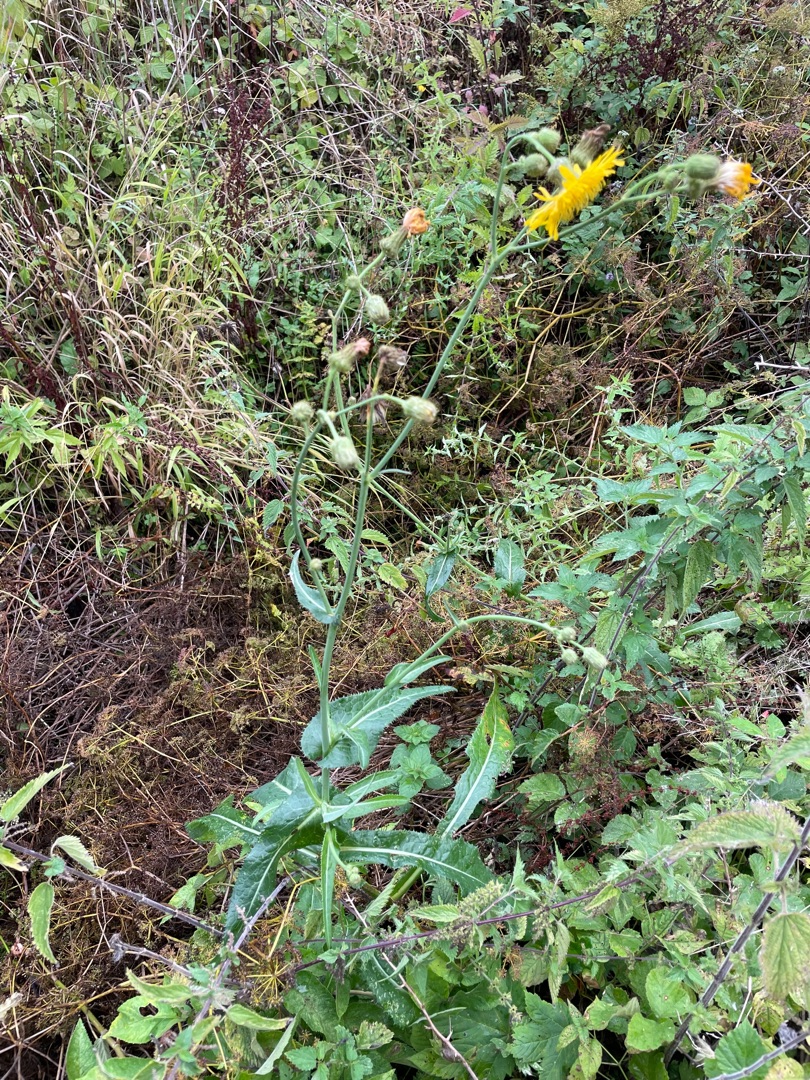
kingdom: Plantae
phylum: Tracheophyta
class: Magnoliopsida
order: Asterales
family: Asteraceae
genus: Sonchus
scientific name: Sonchus arvensis
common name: Ager-svinemælk
